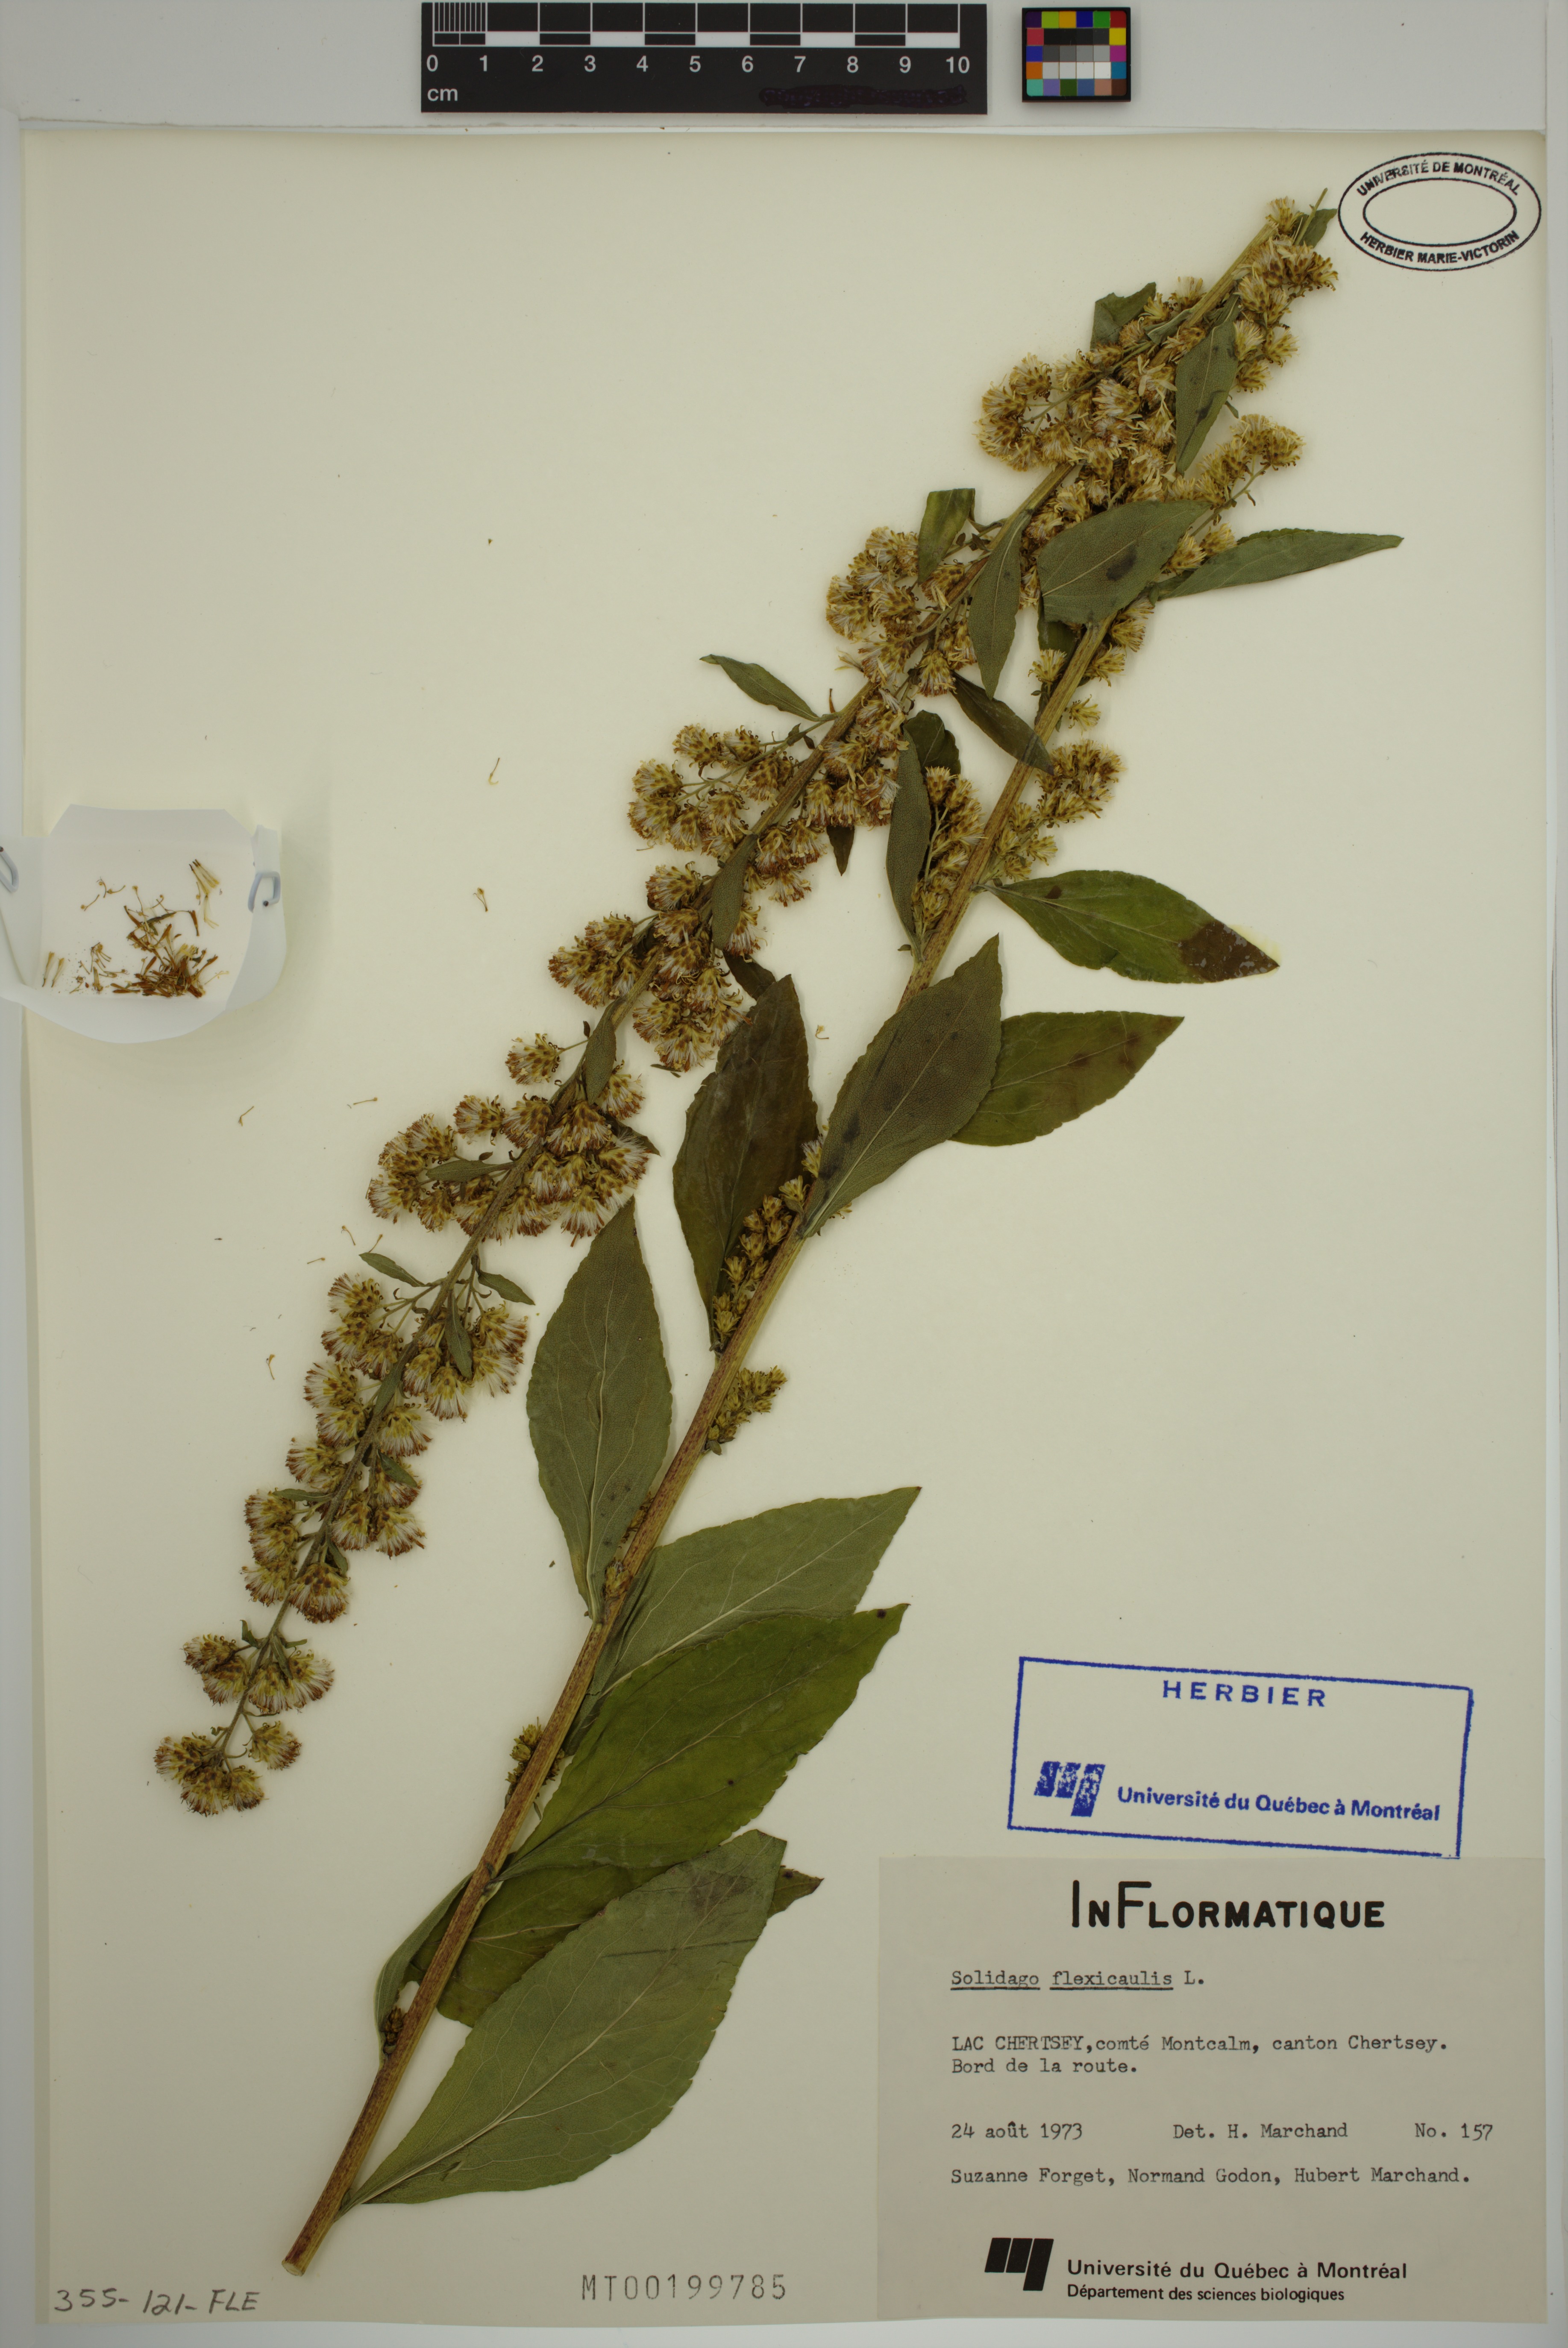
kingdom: Plantae
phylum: Tracheophyta
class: Magnoliopsida
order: Asterales
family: Asteraceae
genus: Solidago
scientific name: Solidago flexicaulis
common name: Zig-zag goldenrod
